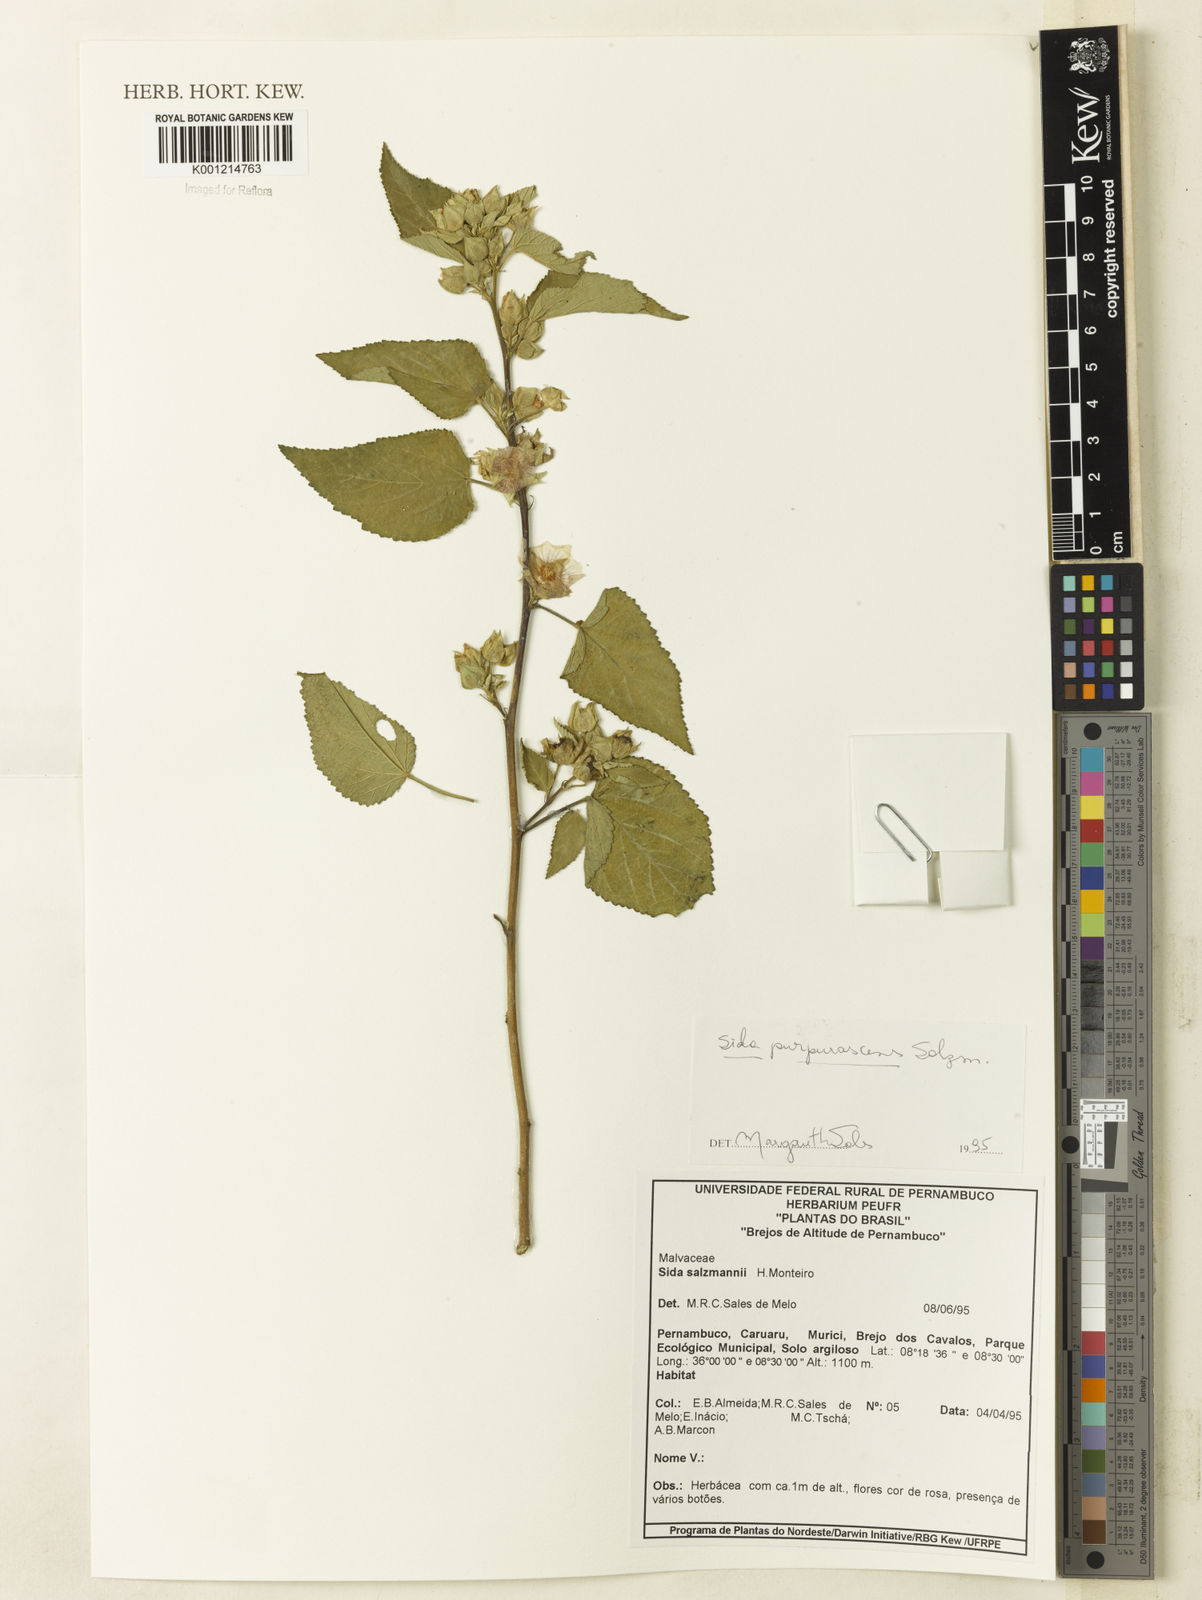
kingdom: Plantae
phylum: Tracheophyta
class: Magnoliopsida
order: Malvales
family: Malvaceae
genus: Sida
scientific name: Sida ulei
